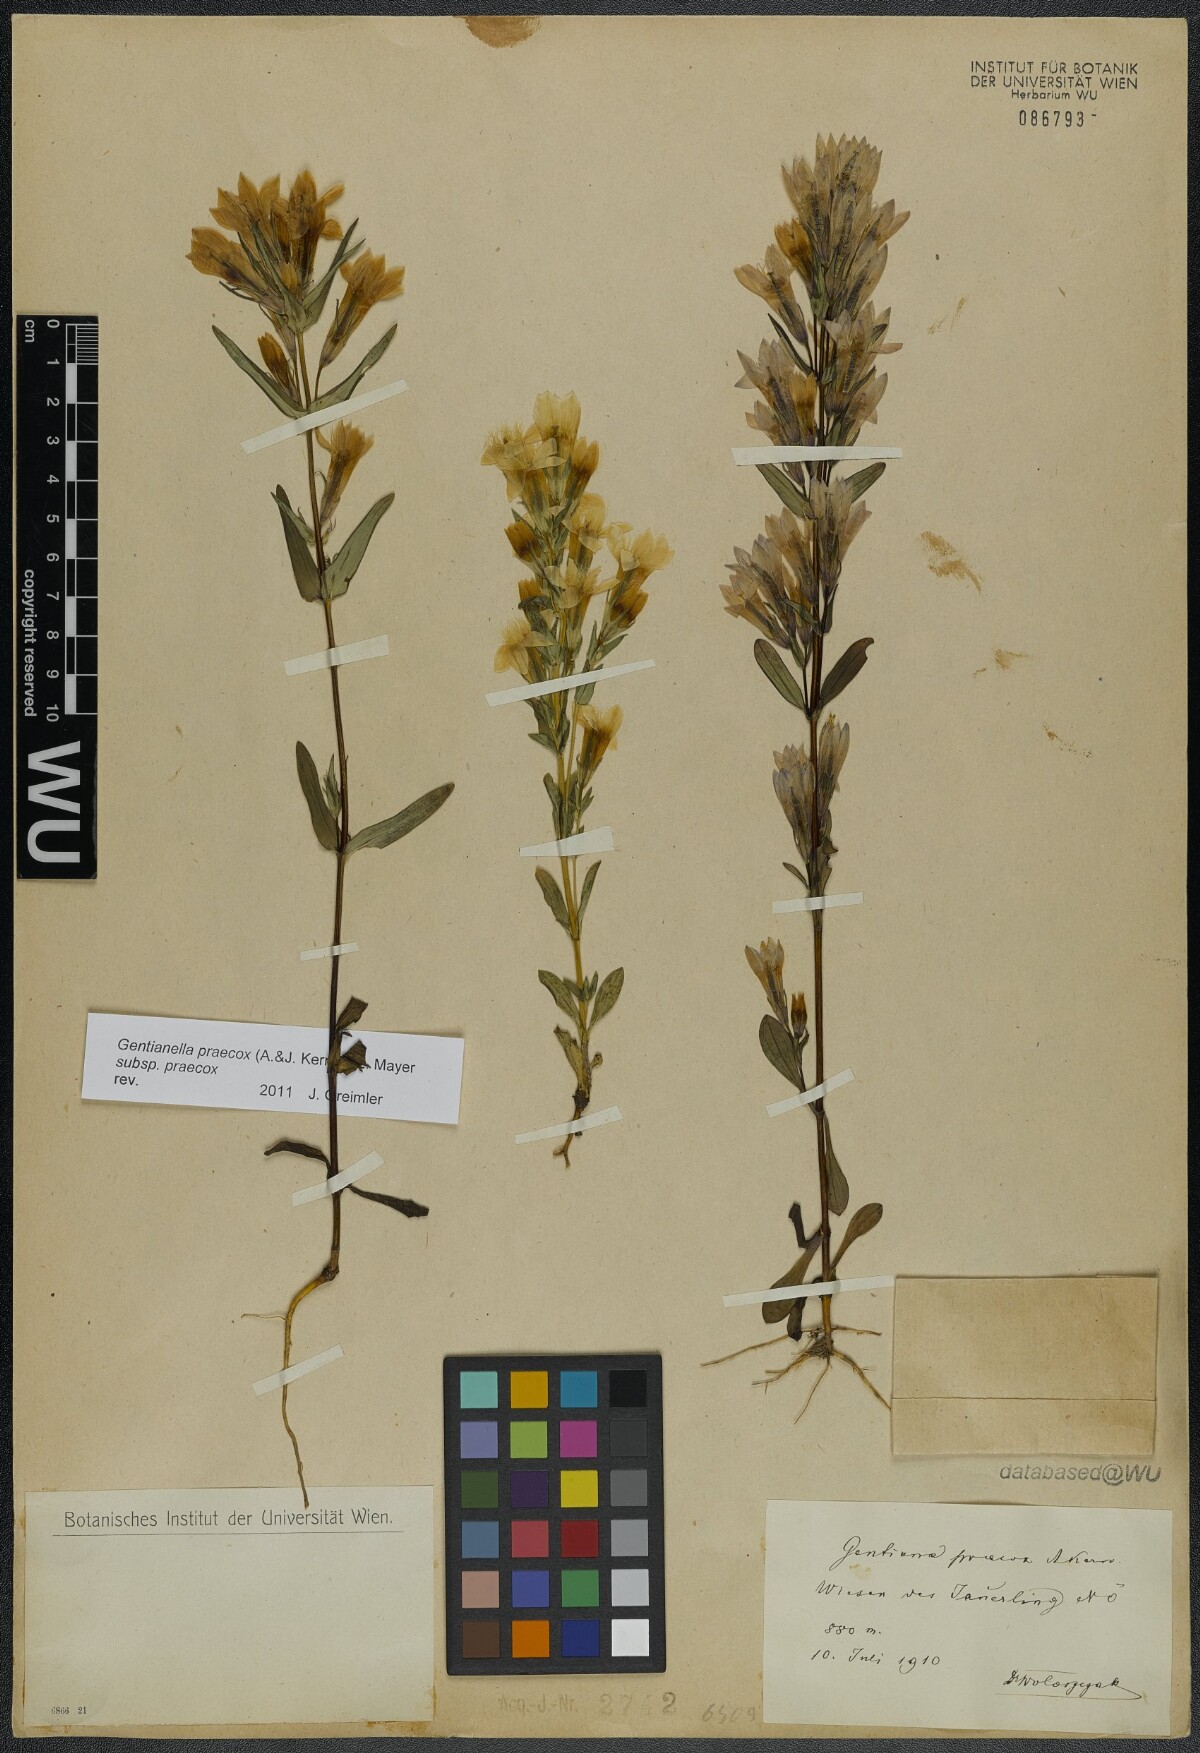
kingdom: Plantae
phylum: Tracheophyta
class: Magnoliopsida
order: Gentianales
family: Gentianaceae
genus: Gentianella
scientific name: Gentianella praecox
